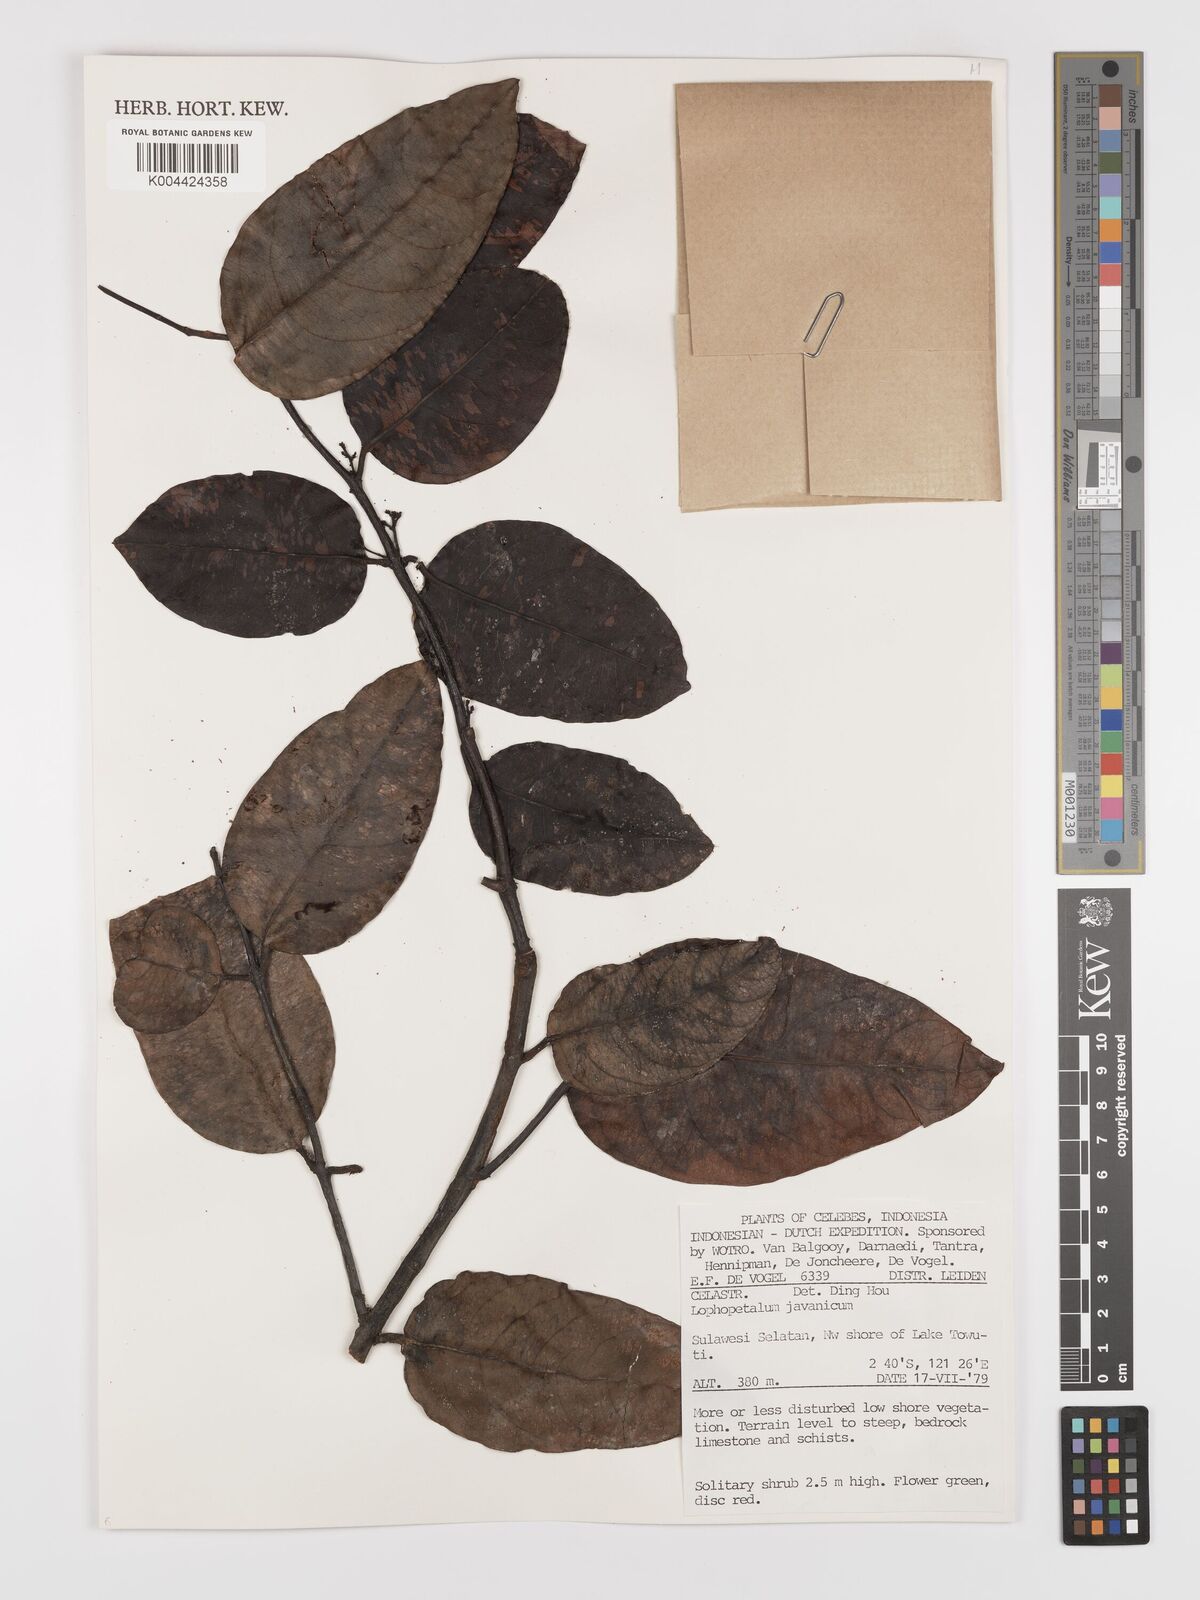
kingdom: Plantae
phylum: Tracheophyta
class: Magnoliopsida
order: Celastrales
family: Celastraceae
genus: Lophopetalum
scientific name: Lophopetalum javanicum
